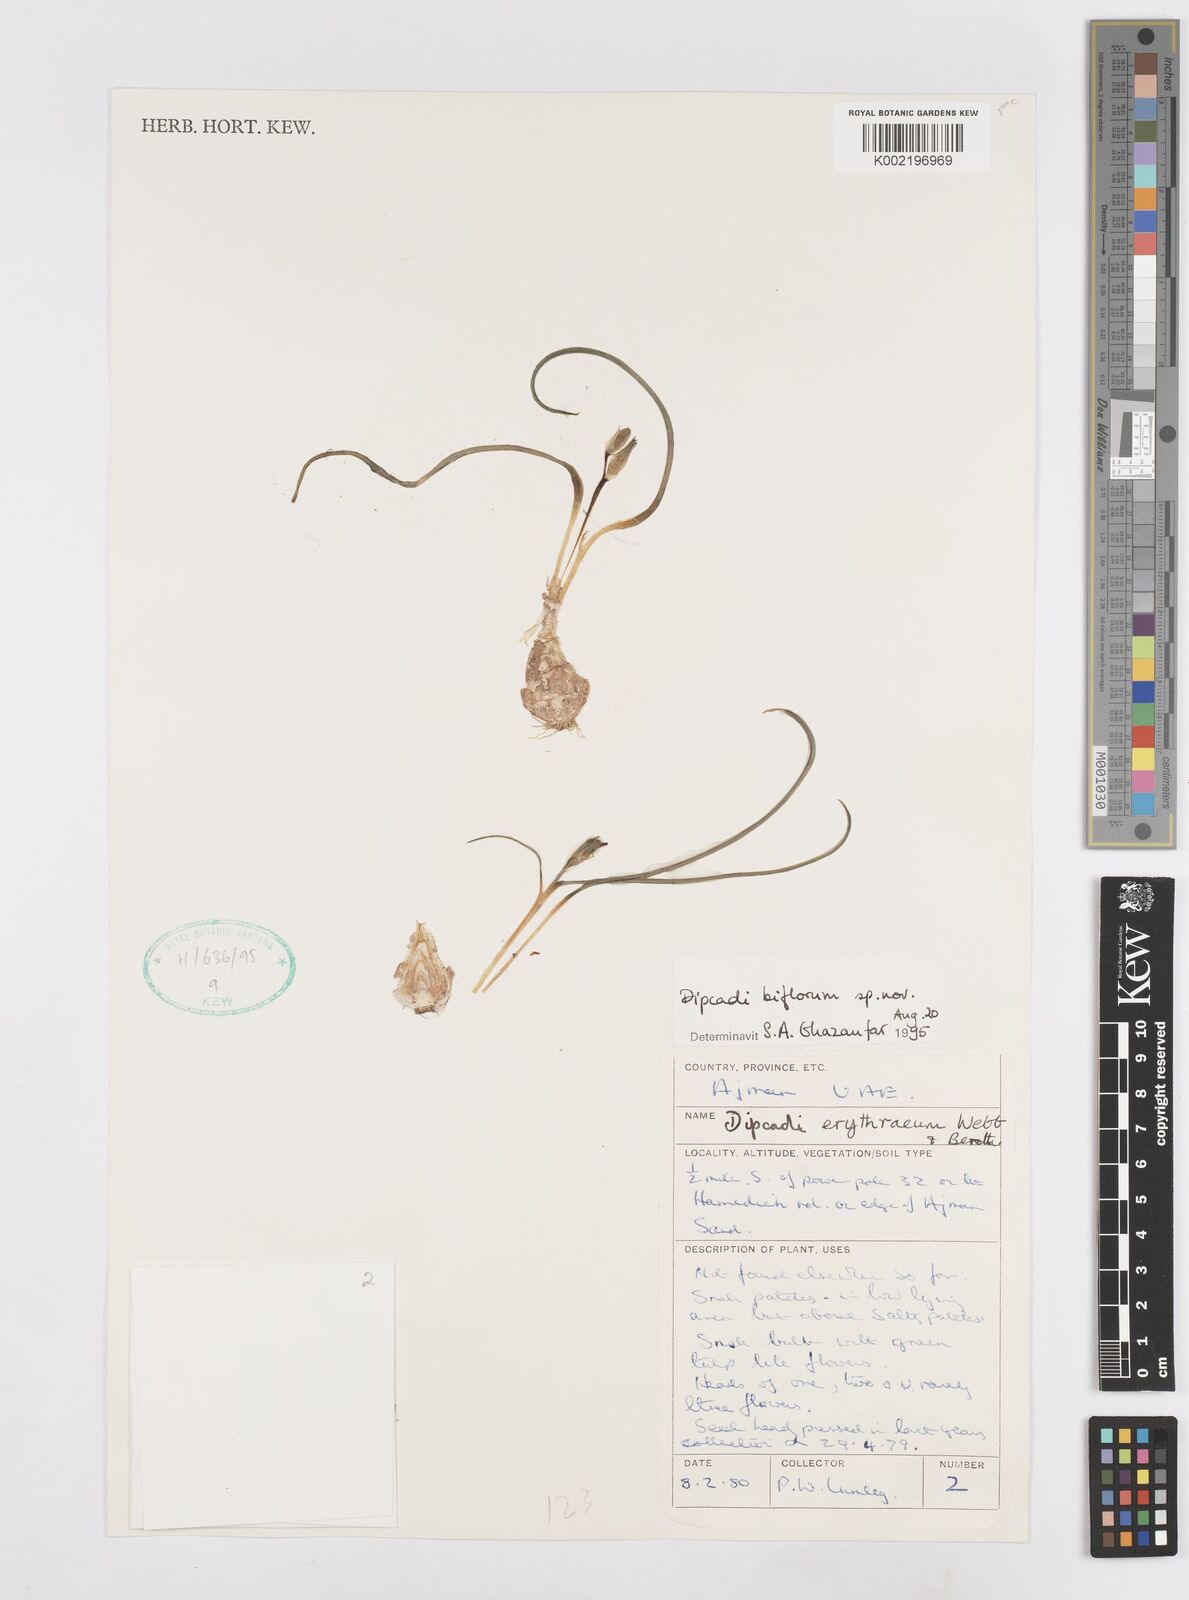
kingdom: Plantae
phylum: Tracheophyta
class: Liliopsida
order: Asparagales
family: Asparagaceae
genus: Dipcadi
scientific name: Dipcadi biflorum
